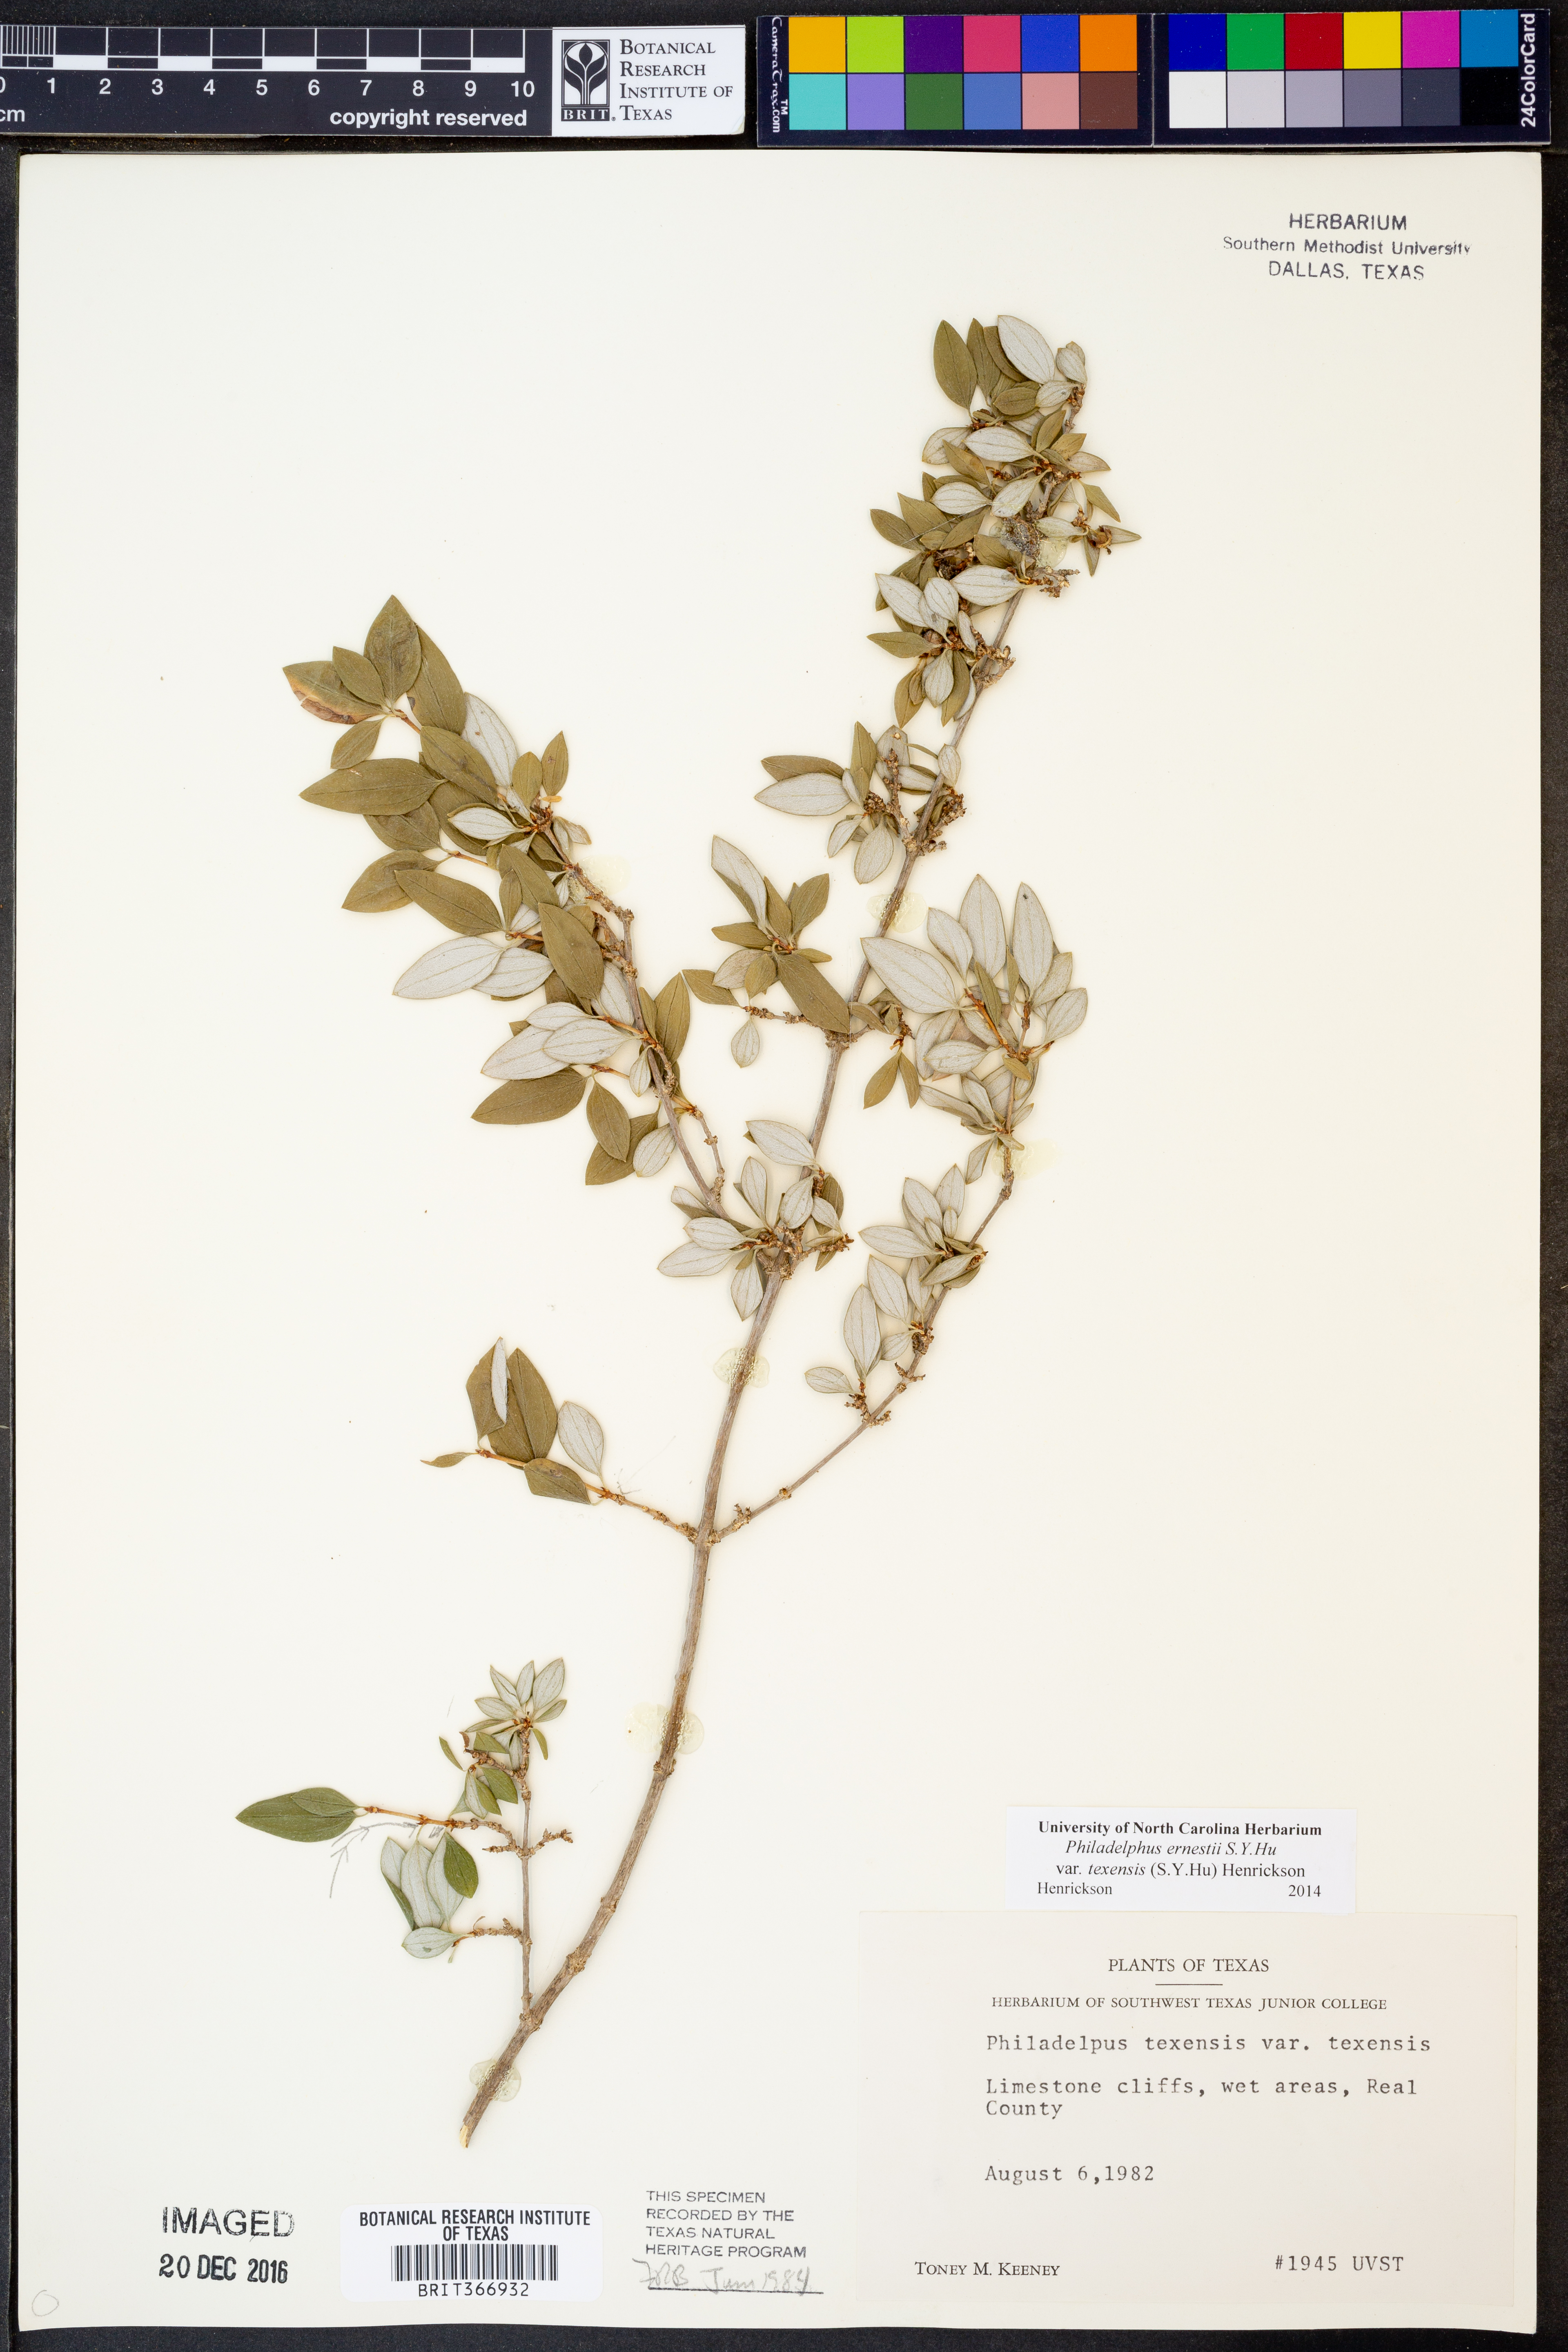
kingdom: Plantae
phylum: Tracheophyta
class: Magnoliopsida
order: Cornales
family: Hydrangeaceae
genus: Philadelphus
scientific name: Philadelphus texensis
